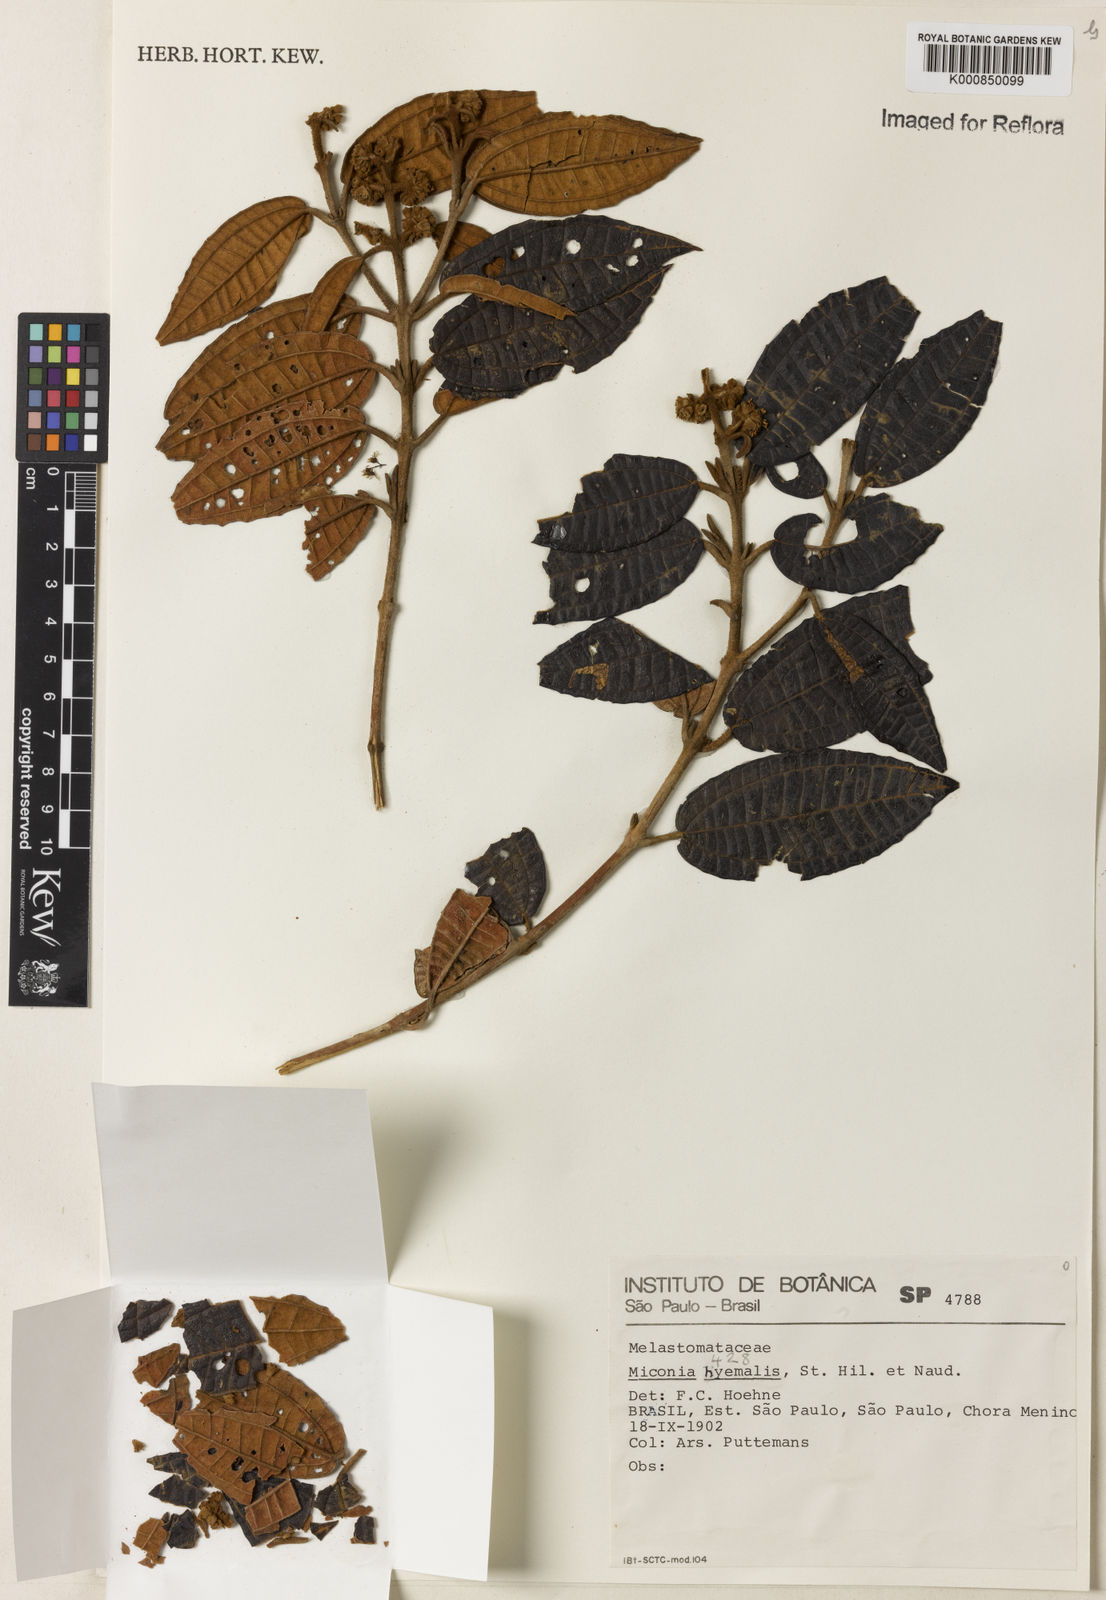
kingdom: Plantae
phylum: Tracheophyta
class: Magnoliopsida
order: Myrtales
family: Melastomataceae
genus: Miconia
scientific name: Miconia hyemalis
